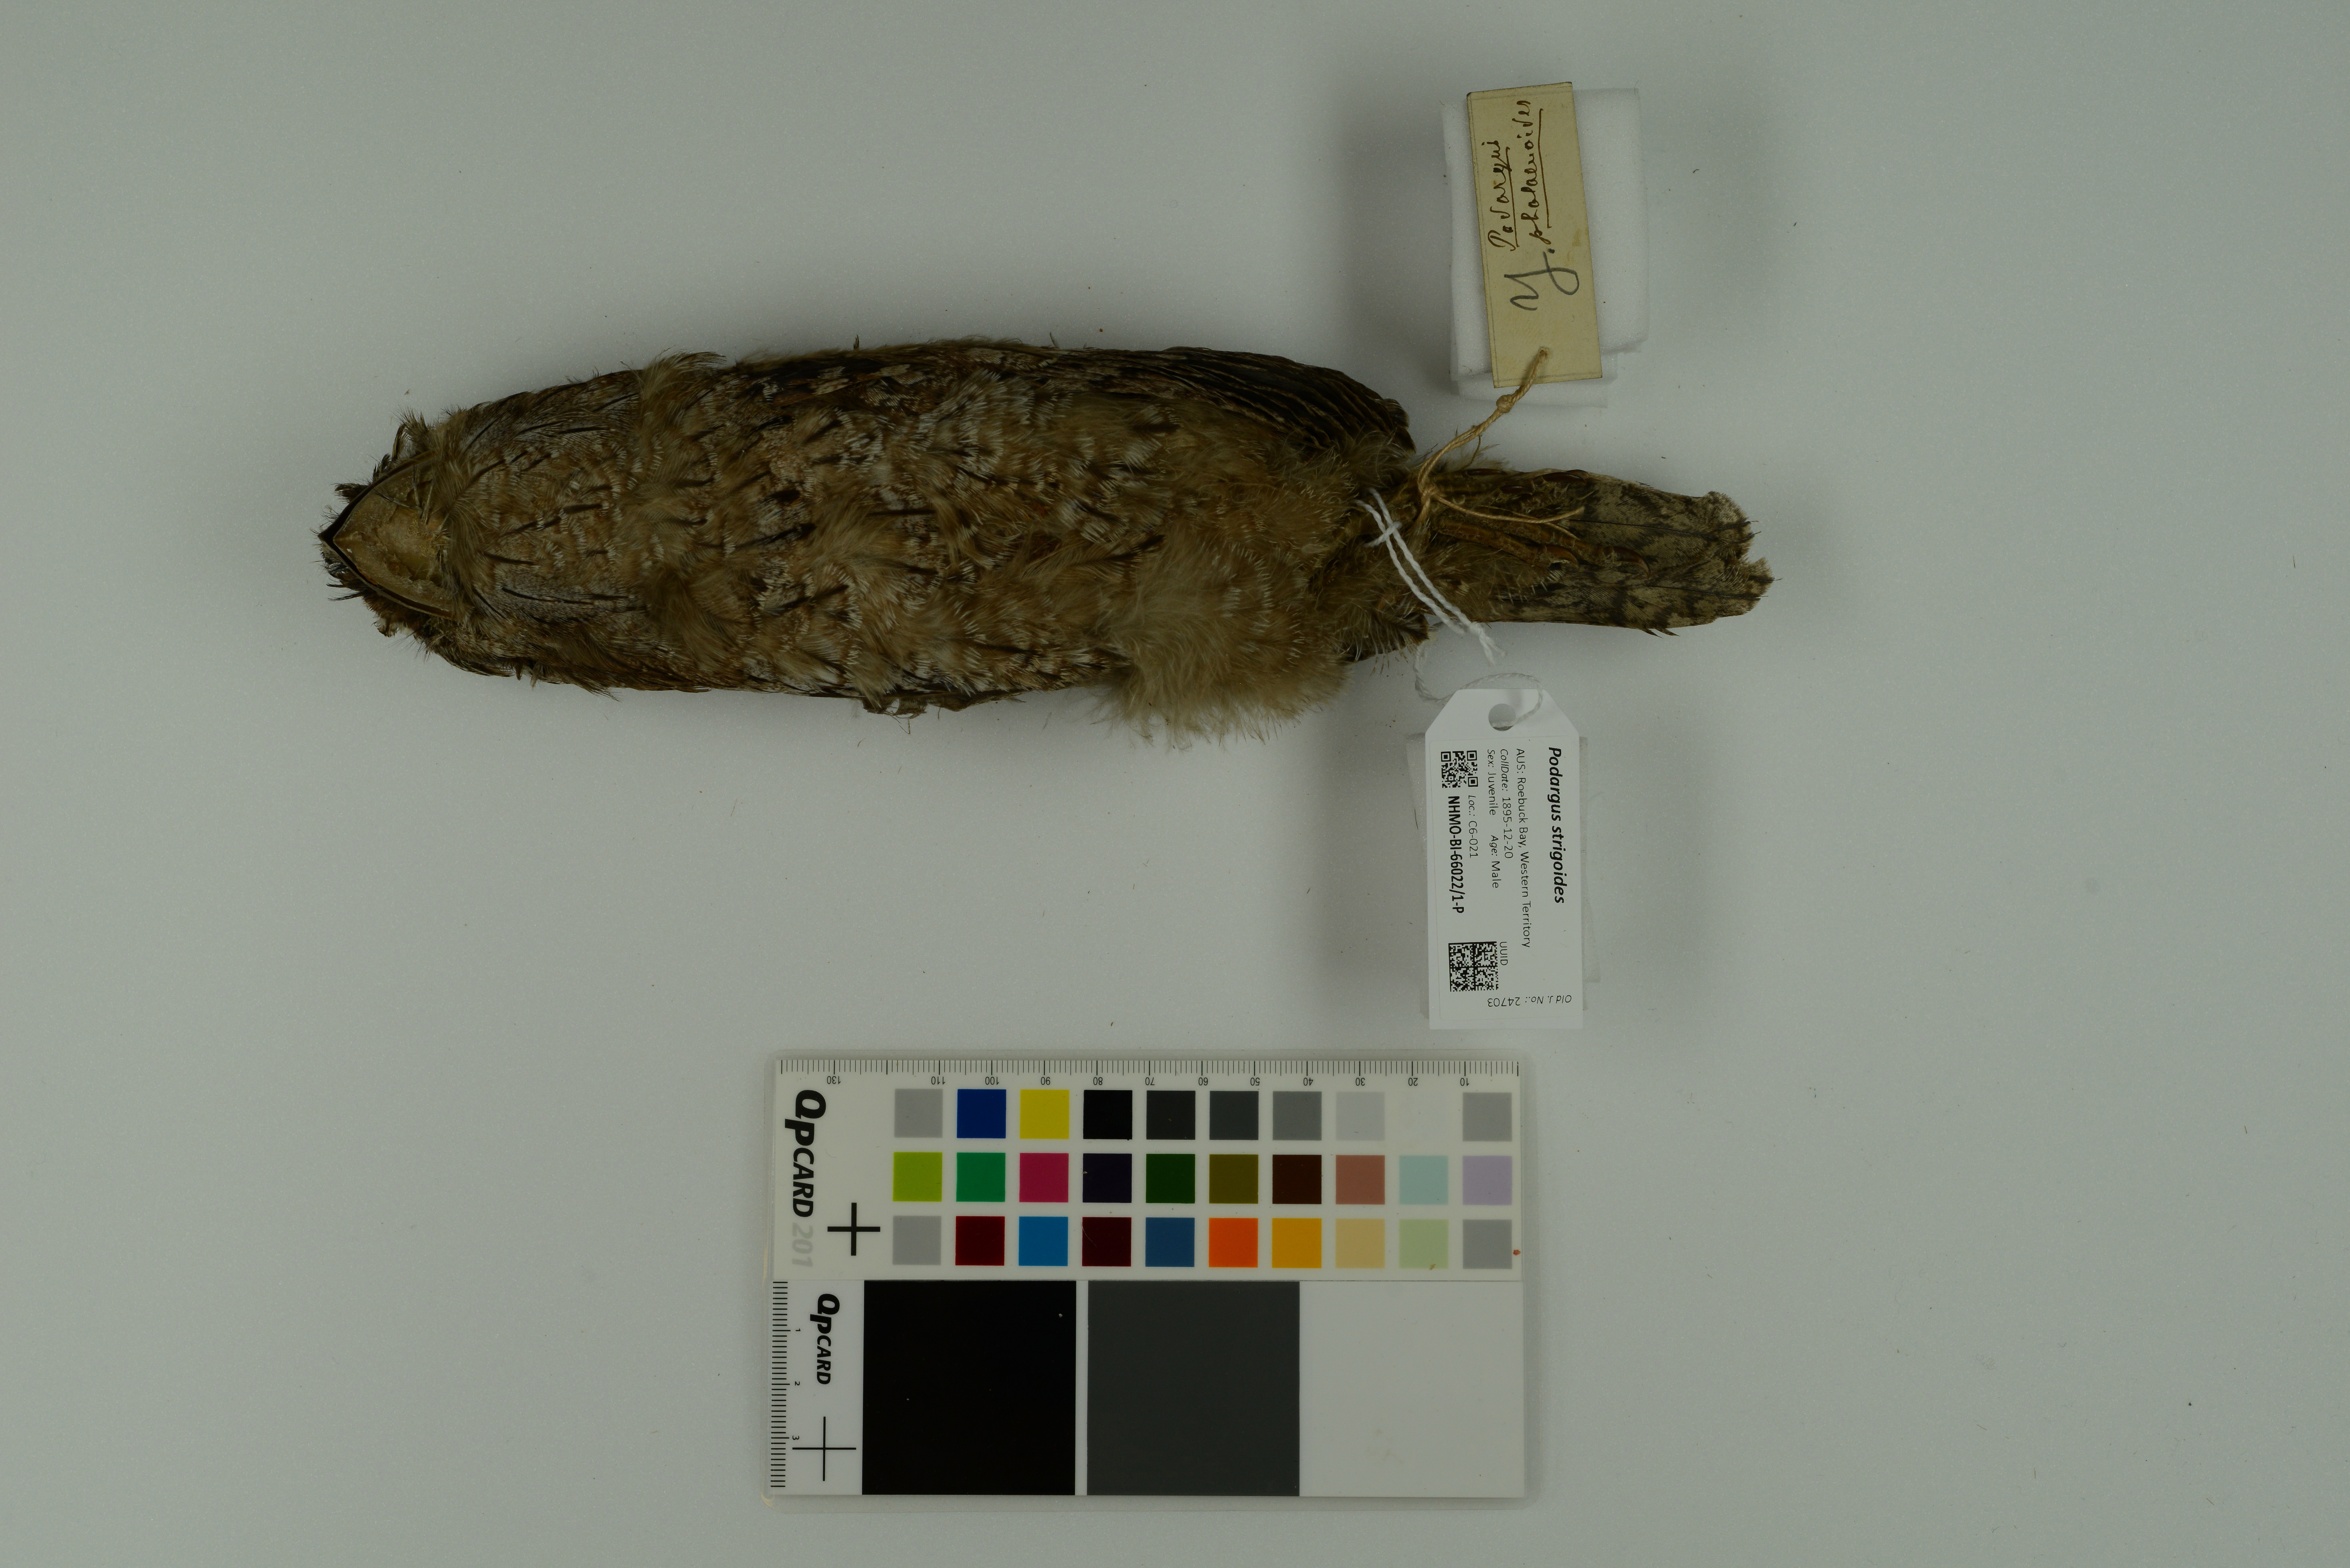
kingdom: Animalia
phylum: Chordata
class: Aves
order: Caprimulgiformes
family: Podargidae
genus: Podargus
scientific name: Podargus strigoides
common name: Tawny frogmouth
